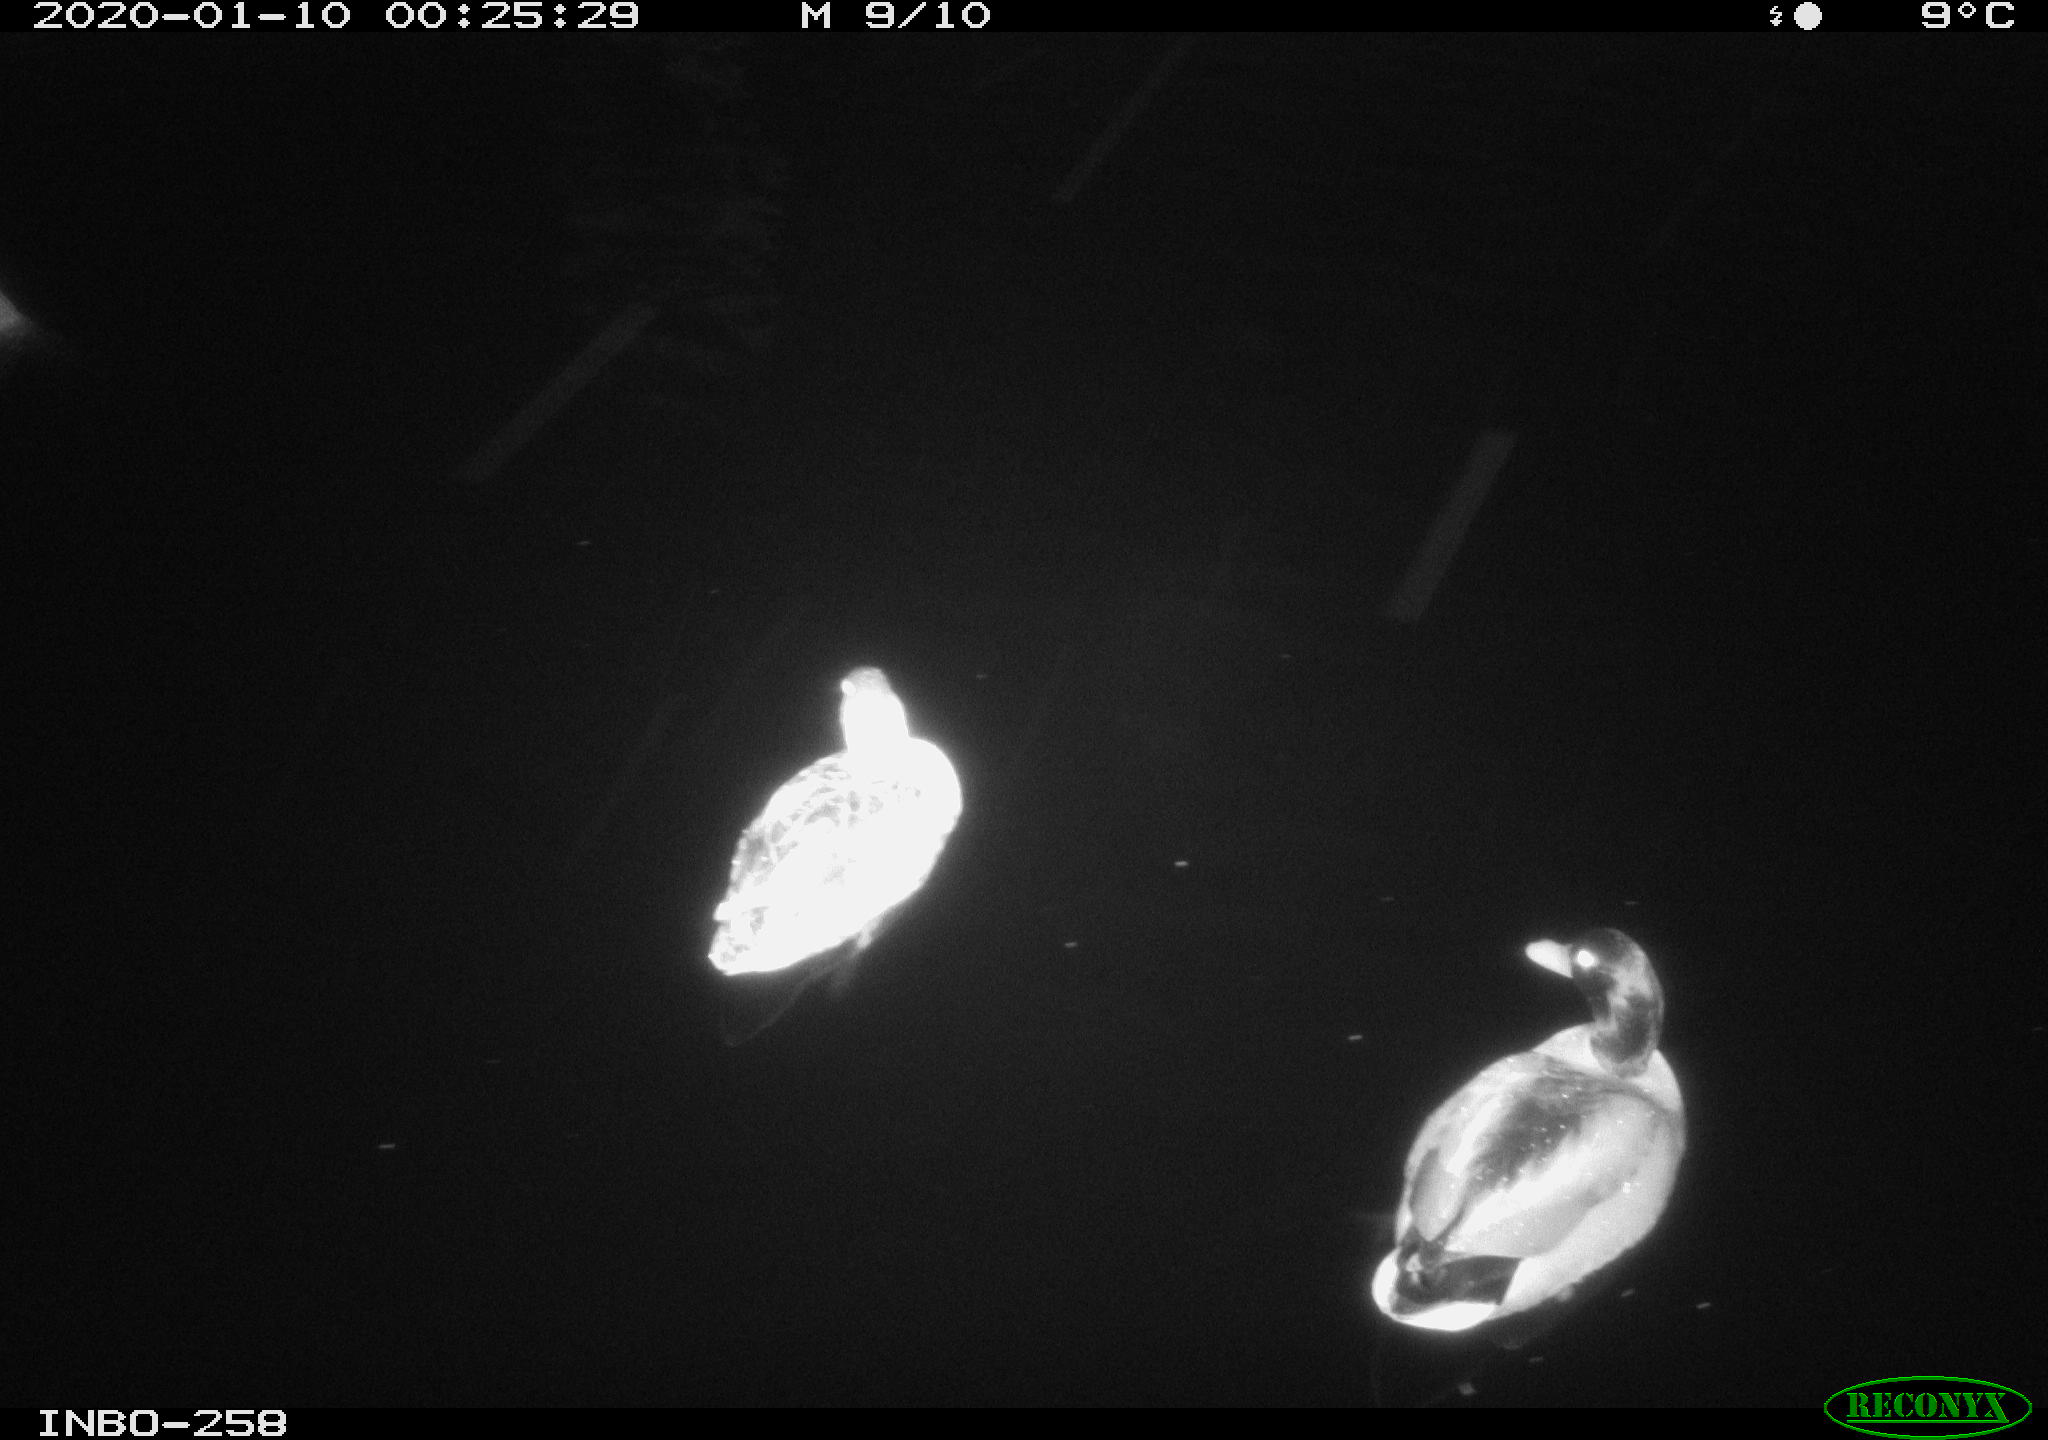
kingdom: Animalia
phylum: Chordata
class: Aves
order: Anseriformes
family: Anatidae
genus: Anas
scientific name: Anas platyrhynchos
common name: Mallard
